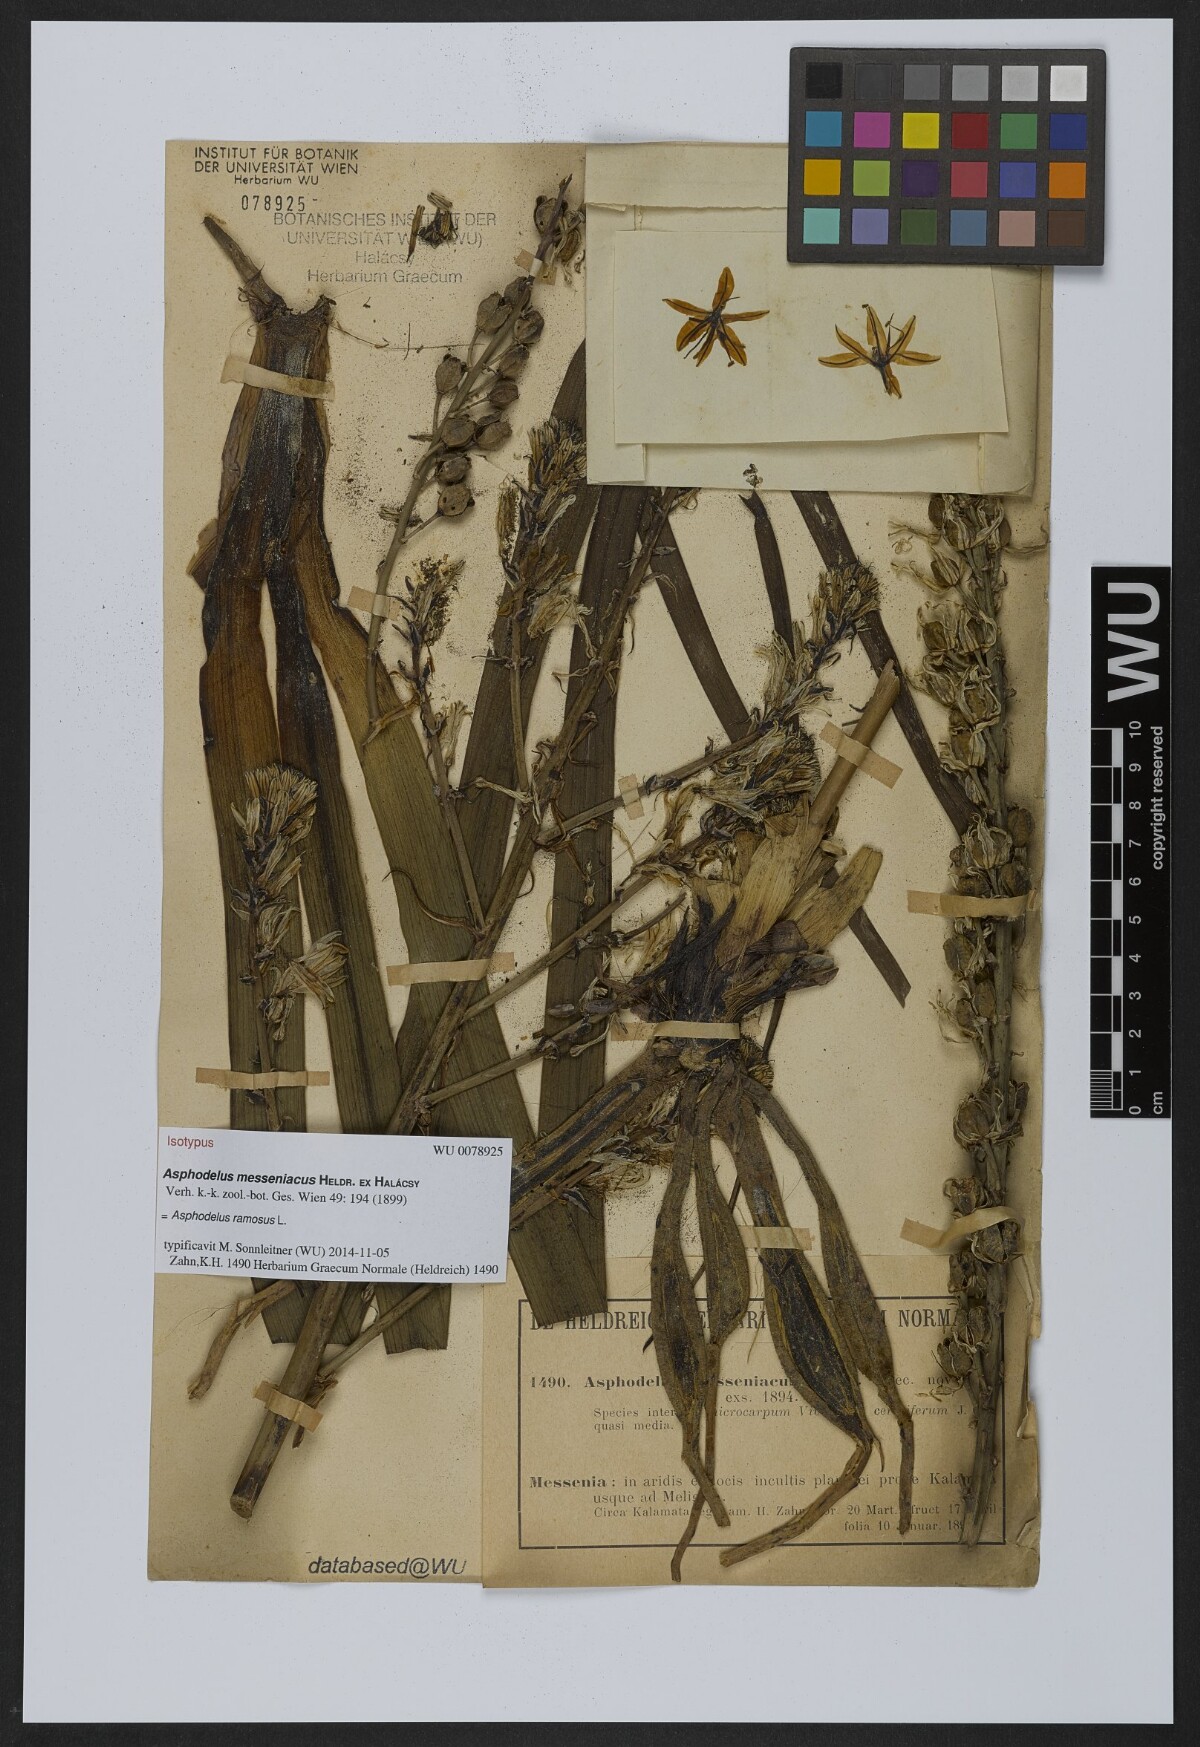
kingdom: Plantae
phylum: Tracheophyta
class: Liliopsida
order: Asparagales
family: Asphodelaceae
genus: Asphodelus
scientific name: Asphodelus ramosus
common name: Silverrod
